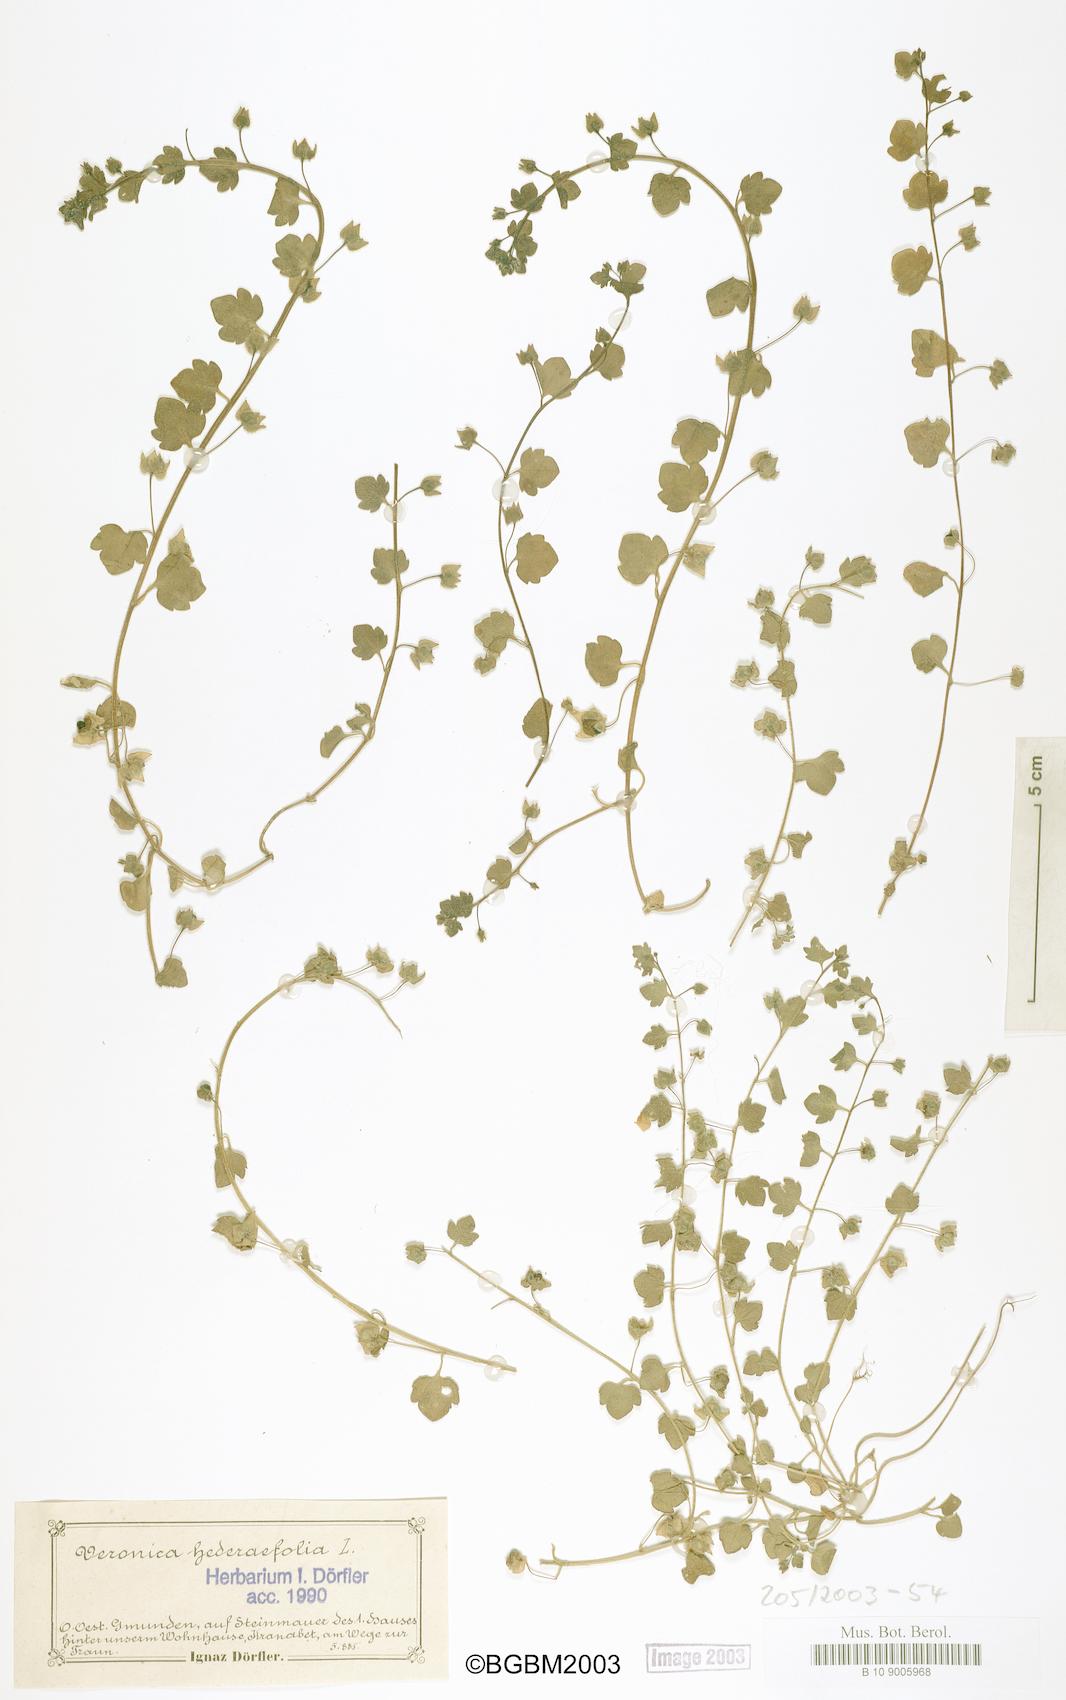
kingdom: Plantae
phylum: Tracheophyta
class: Magnoliopsida
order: Lamiales
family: Plantaginaceae
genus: Veronica
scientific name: Veronica hederifolia
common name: Ivy-leaved speedwell
